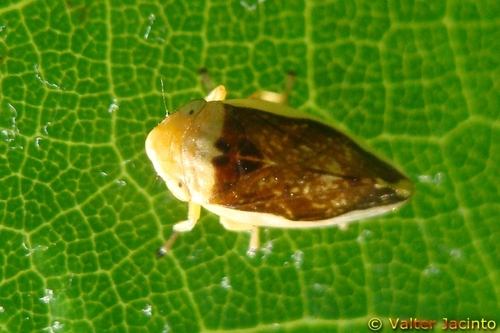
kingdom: Animalia
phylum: Arthropoda
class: Insecta
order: Hemiptera
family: Aphrophoridae
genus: Philaenus
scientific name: Philaenus spumarius
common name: Meadow spittlebug
